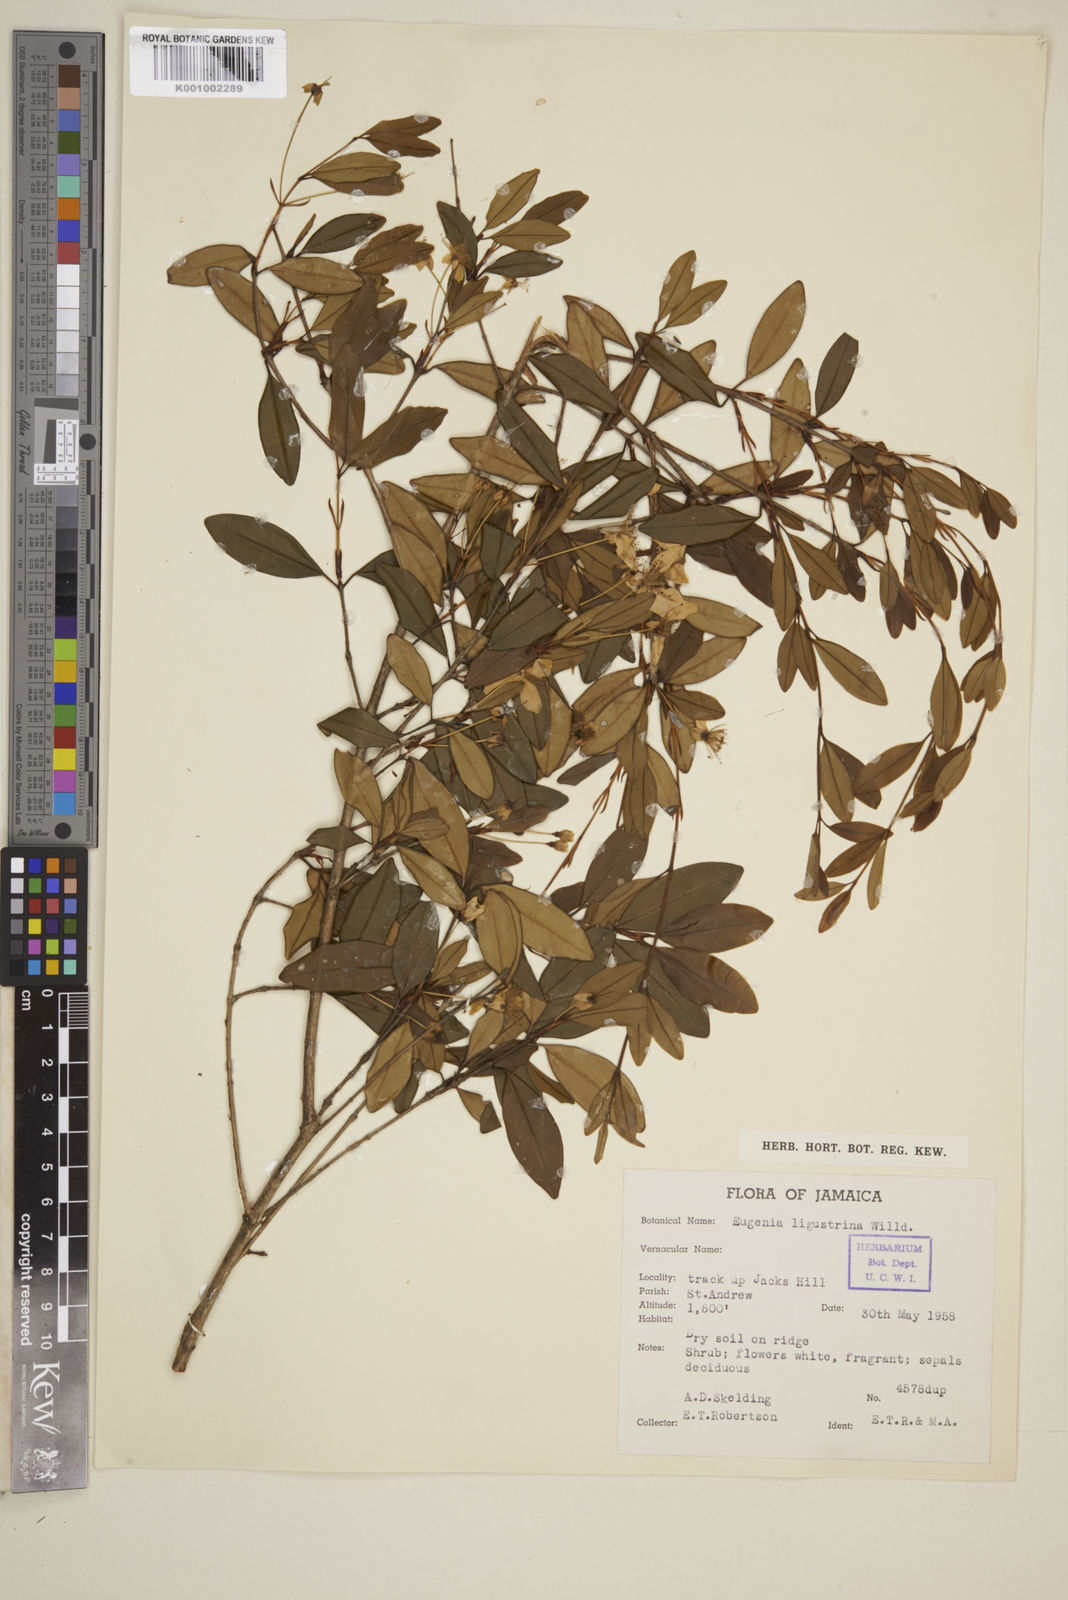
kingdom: Plantae
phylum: Tracheophyta
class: Magnoliopsida
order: Myrtales
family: Myrtaceae
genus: Eugenia
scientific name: Eugenia ligustrina
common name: Privet stopper
